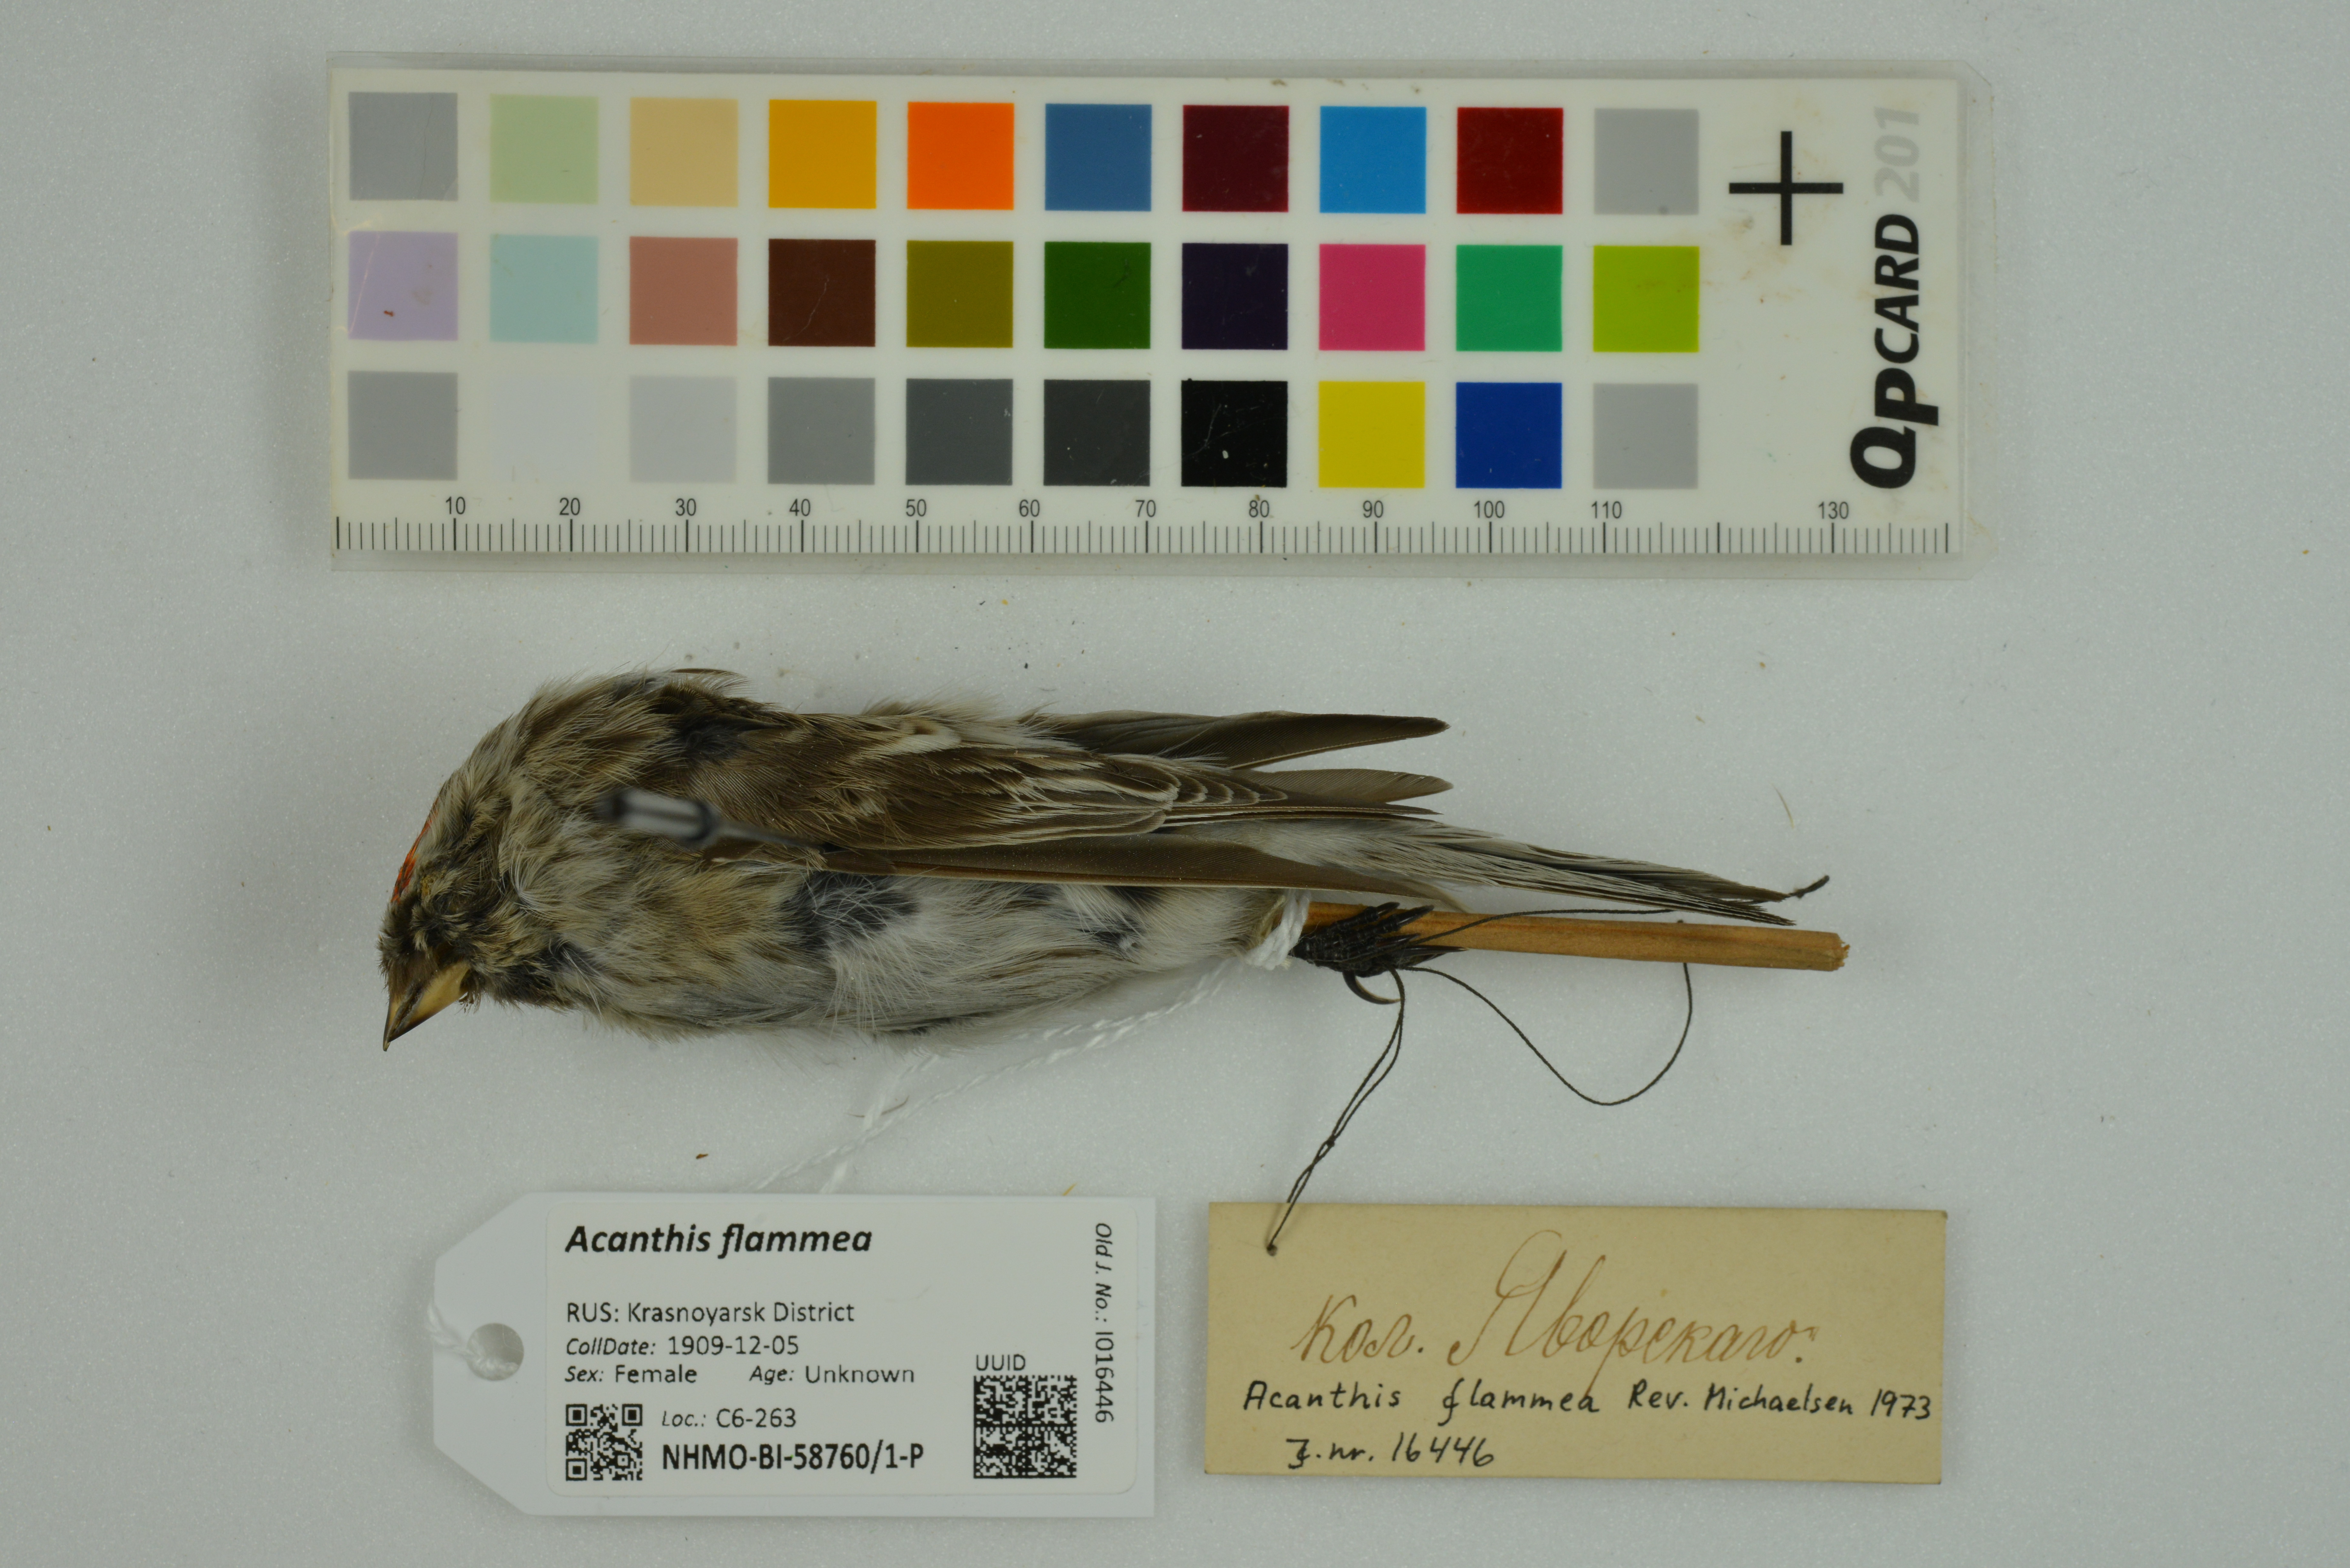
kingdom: Animalia
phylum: Chordata
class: Aves
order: Passeriformes
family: Fringillidae
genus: Acanthis
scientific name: Acanthis flammea
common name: Common redpoll
